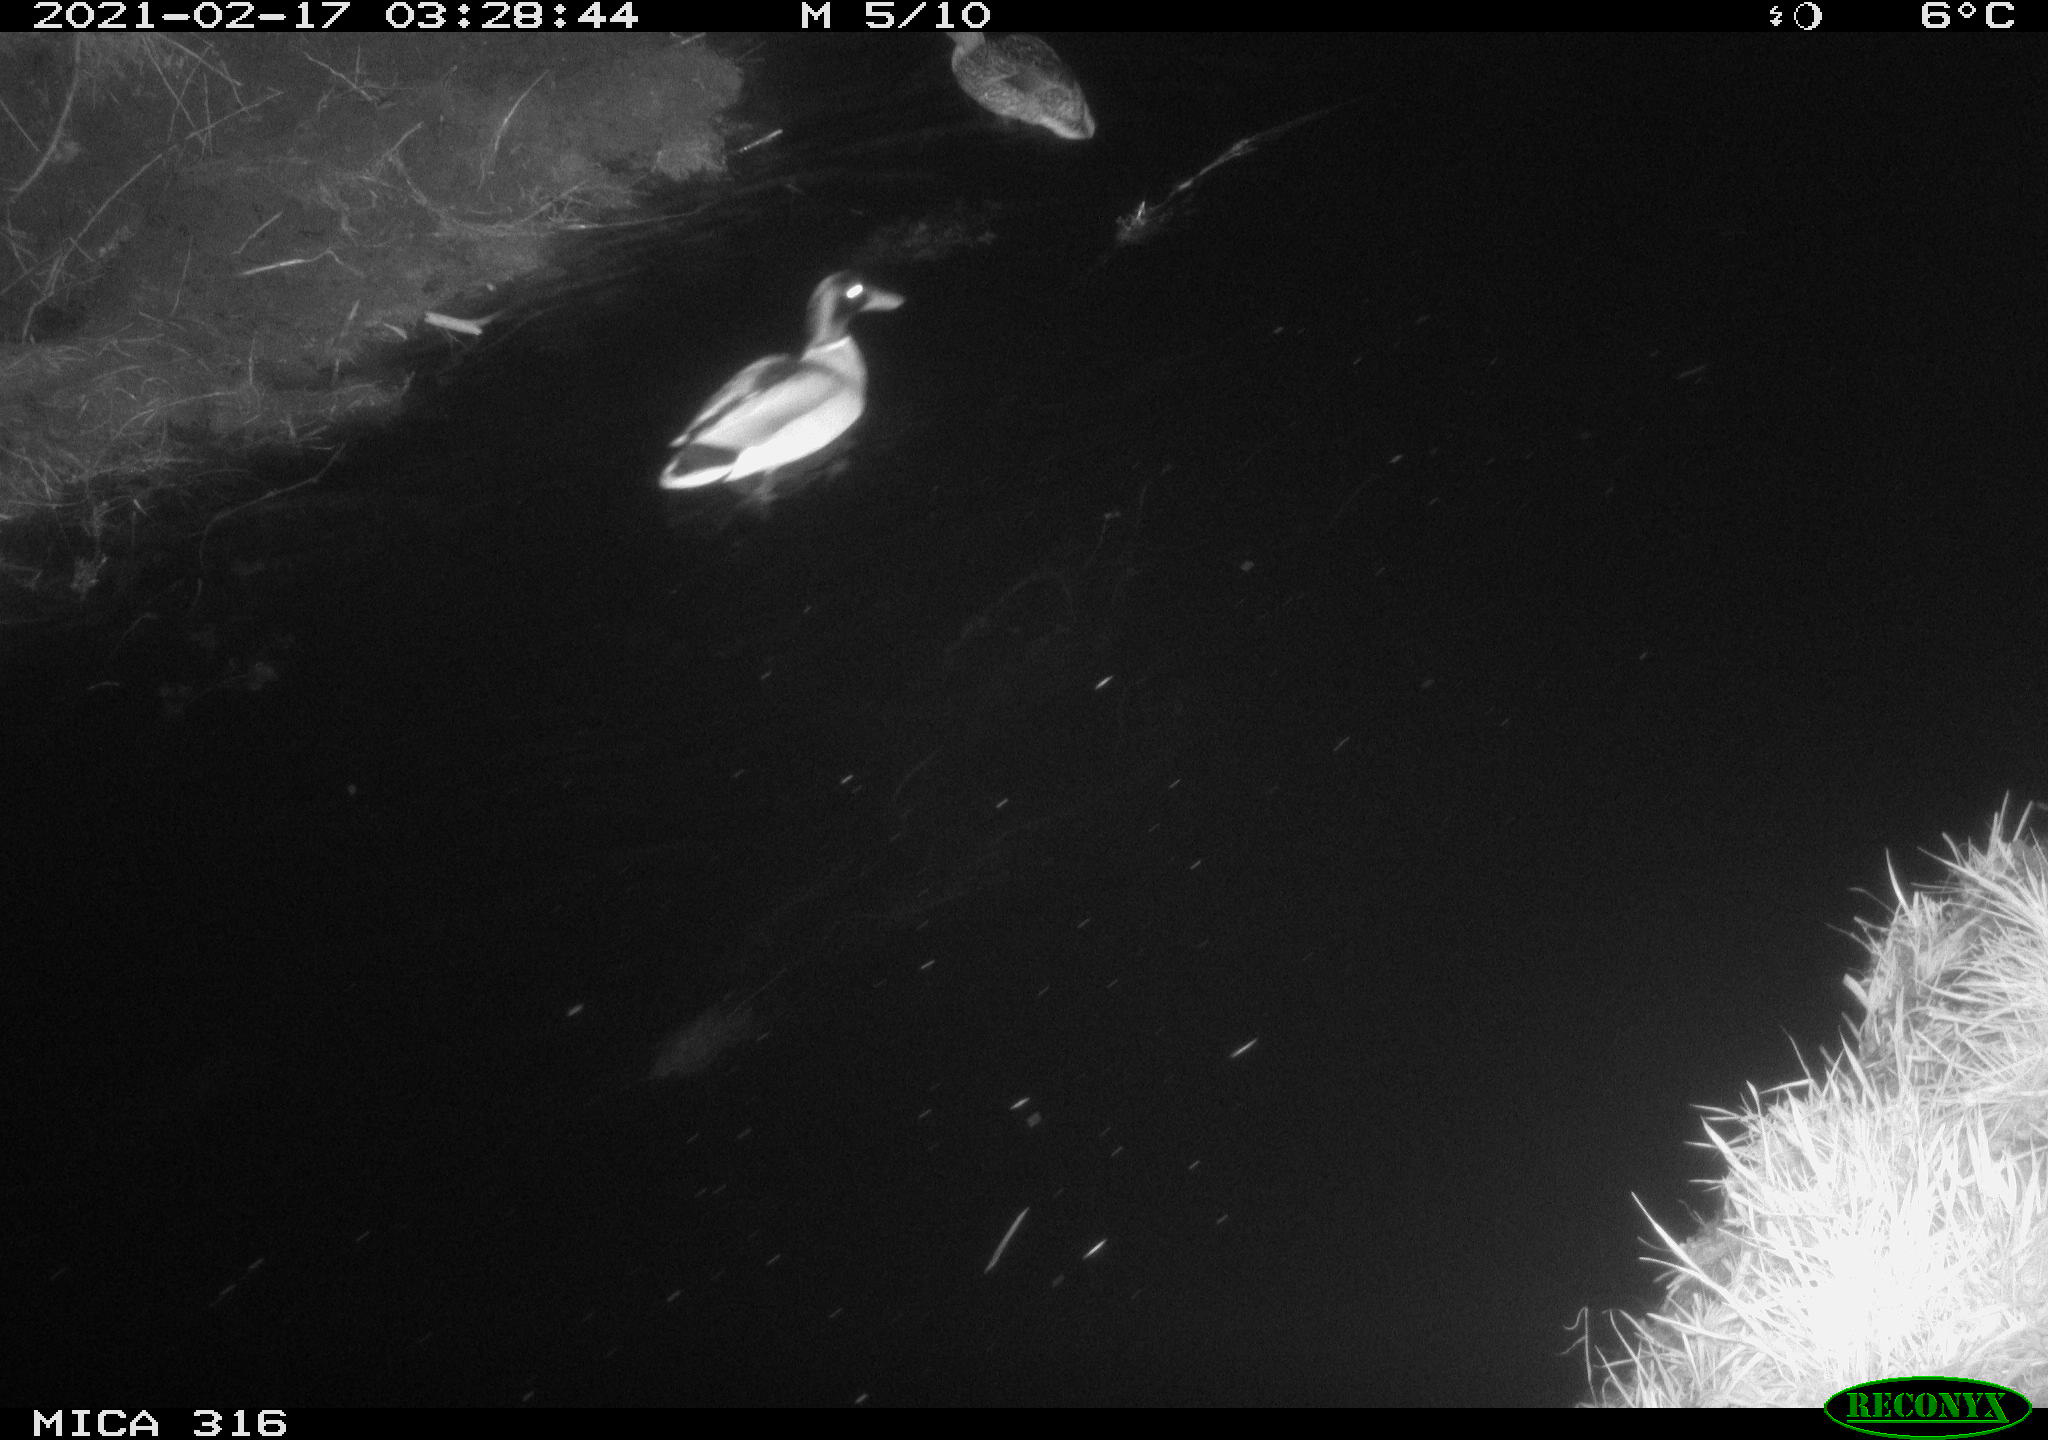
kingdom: Animalia
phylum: Chordata
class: Aves
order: Anseriformes
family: Anatidae
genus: Anas
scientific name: Anas platyrhynchos
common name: Mallard
